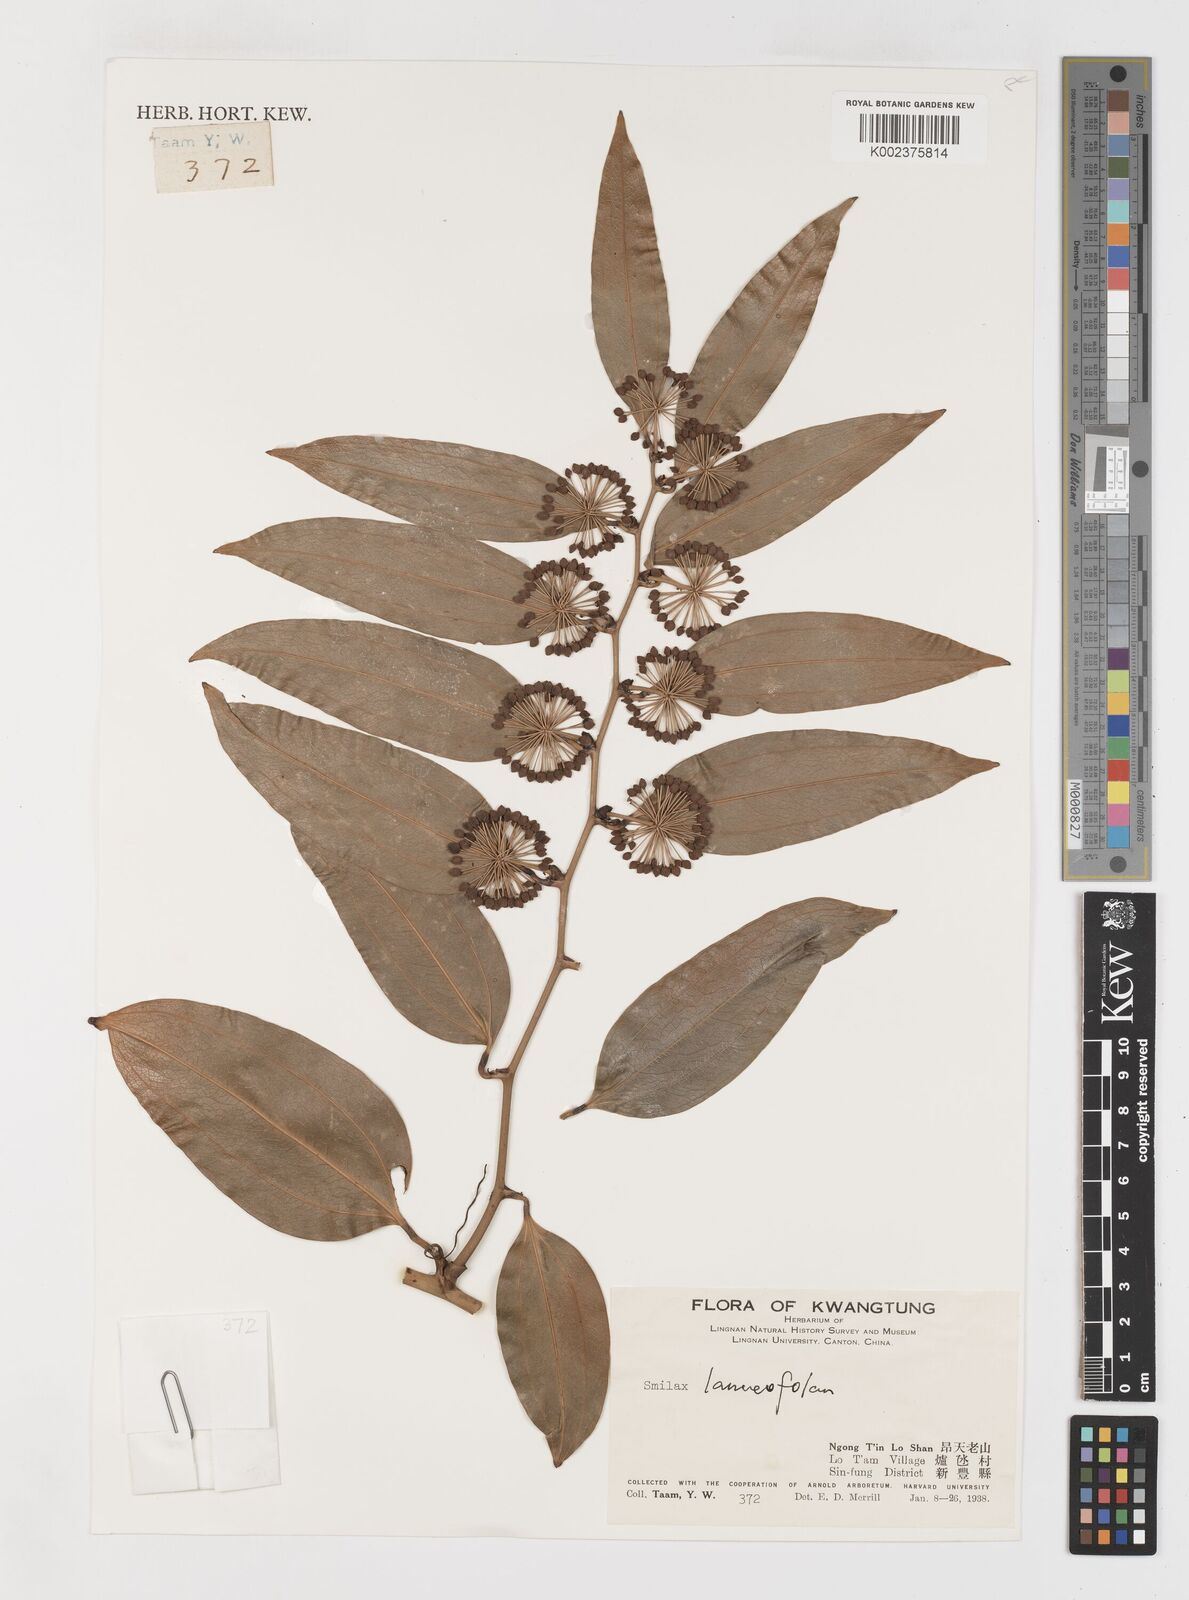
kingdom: Plantae
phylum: Tracheophyta
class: Liliopsida
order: Liliales
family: Smilacaceae
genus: Smilax
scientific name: Smilax
